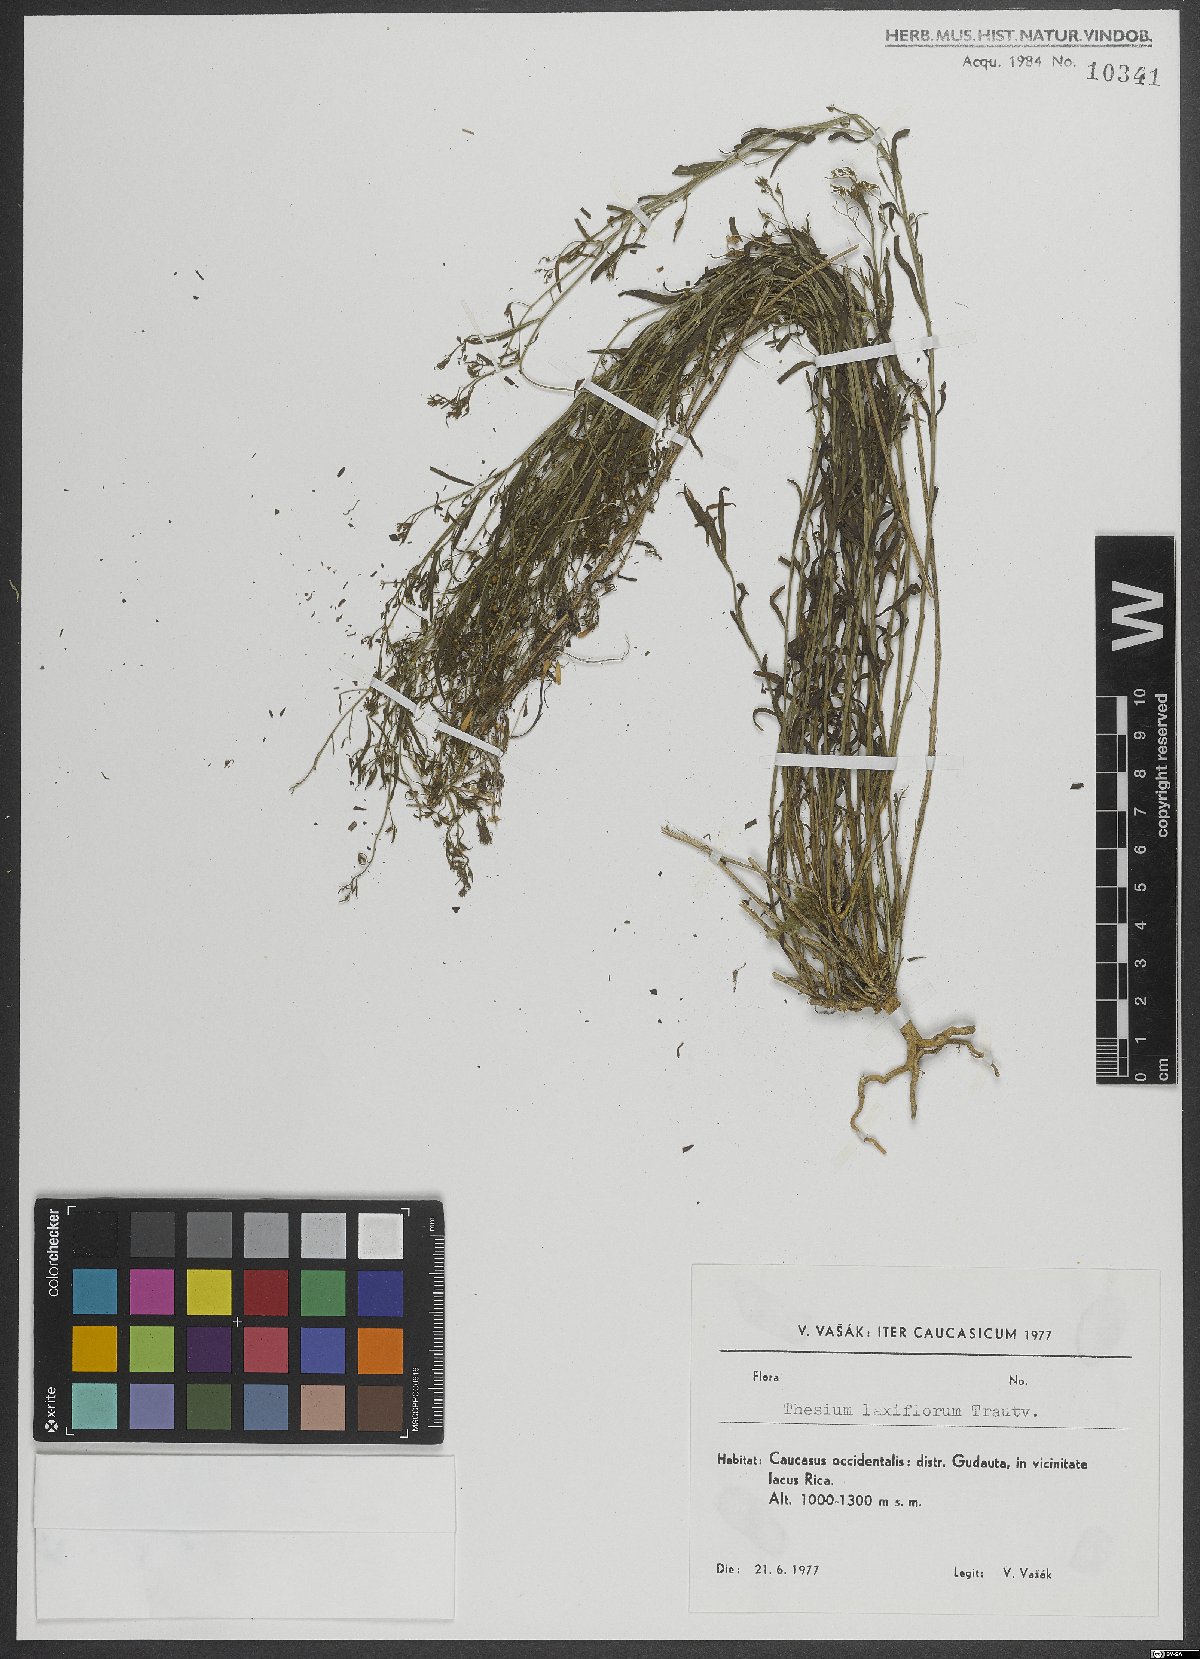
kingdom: Plantae
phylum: Tracheophyta
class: Magnoliopsida
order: Santalales
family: Thesiaceae
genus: Thesium
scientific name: Thesium laxiflorum
